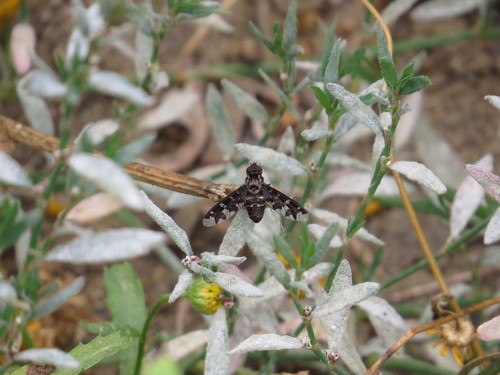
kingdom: Animalia
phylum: Arthropoda
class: Insecta
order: Diptera
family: Bombyliidae
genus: Exoprosopa
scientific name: Exoprosopa
